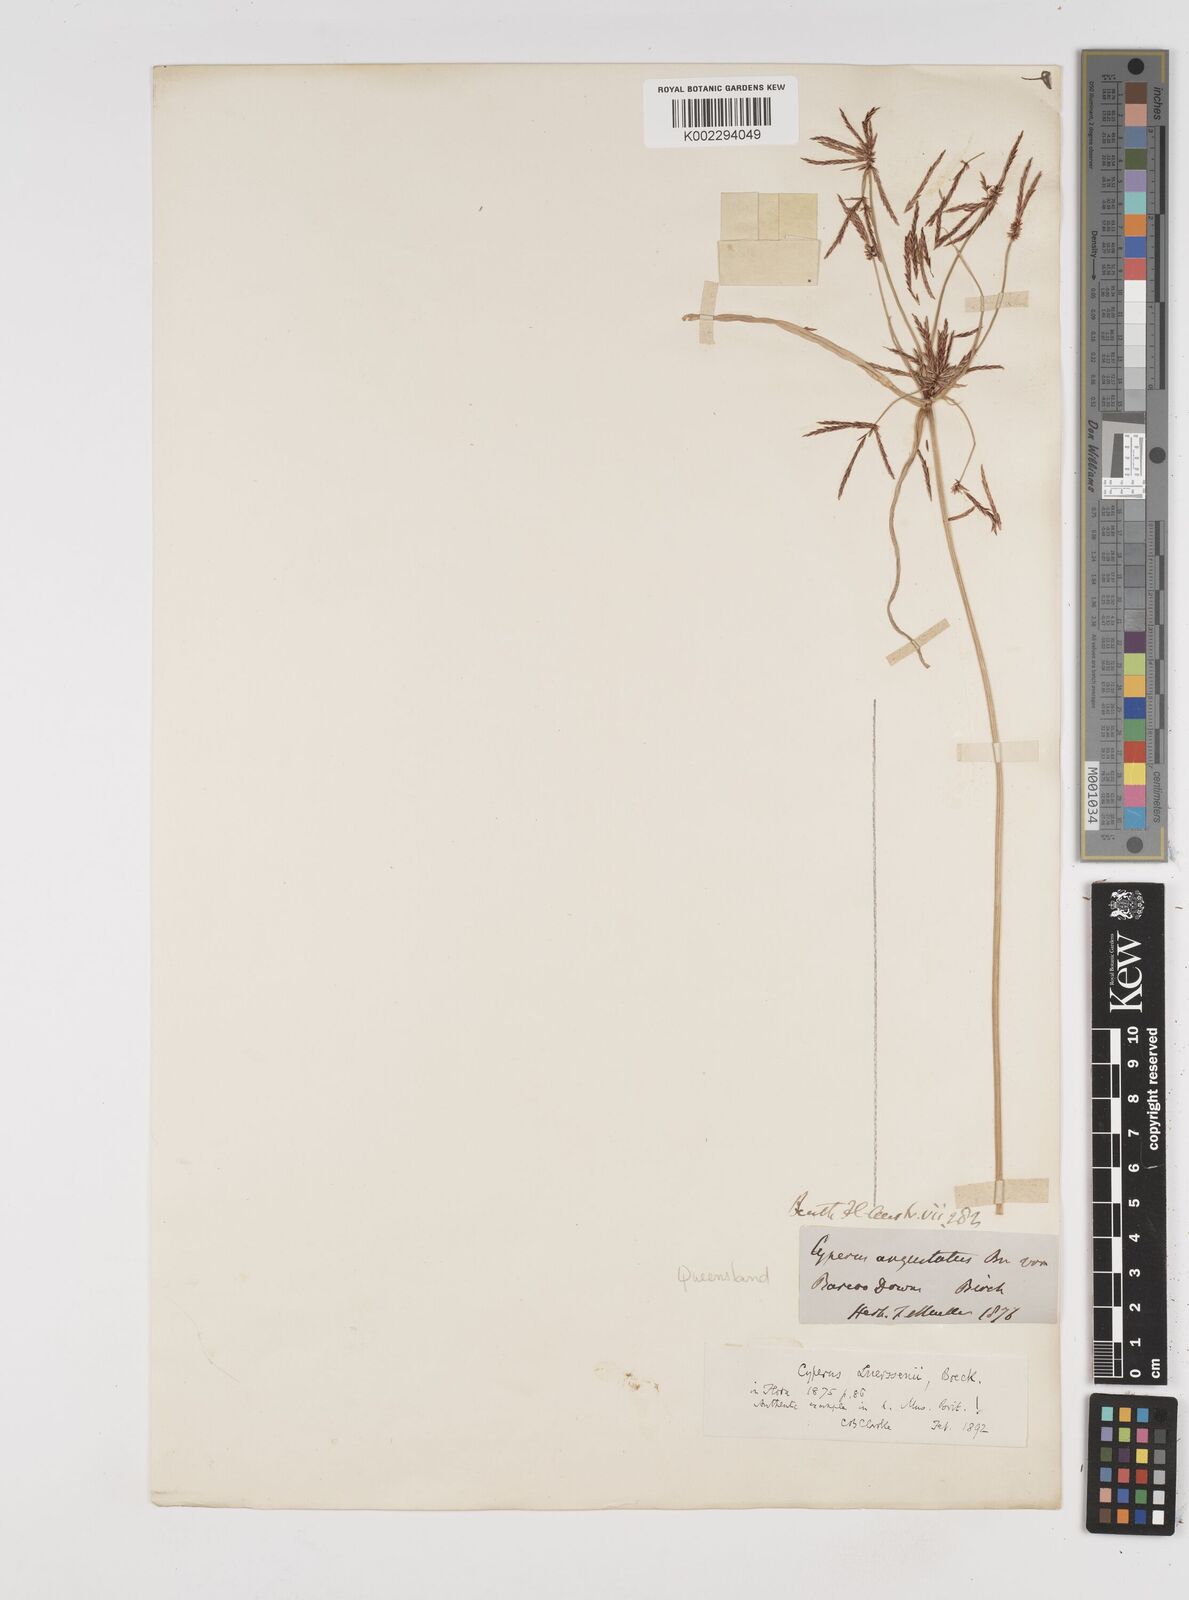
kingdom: Plantae
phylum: Tracheophyta
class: Liliopsida
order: Poales
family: Cyperaceae
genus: Cyperus
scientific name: Cyperus luerssenii
